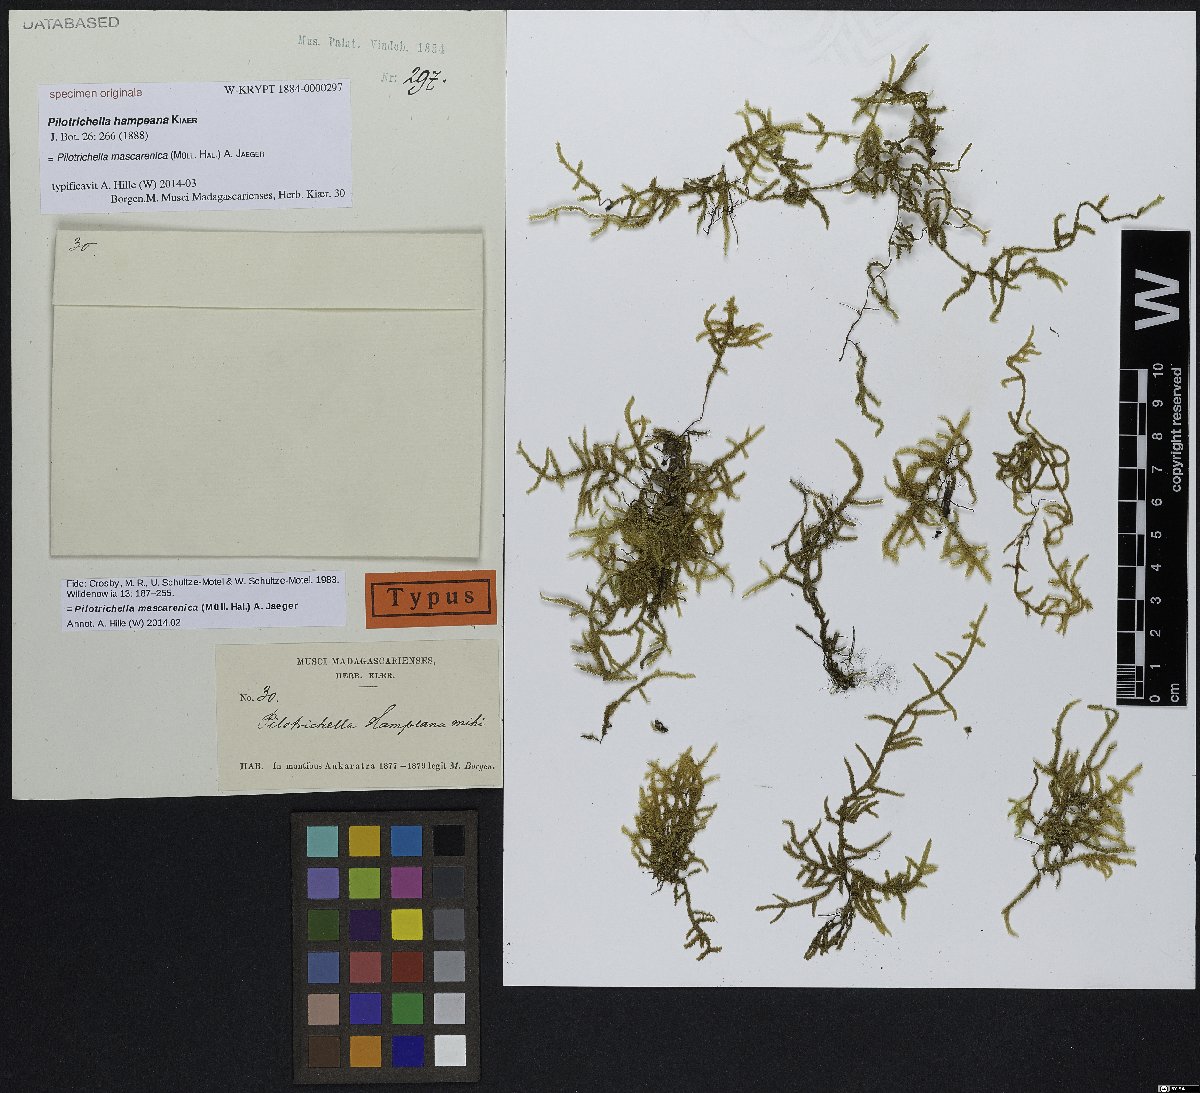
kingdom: Plantae
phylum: Bryophyta
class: Bryopsida
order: Hypnales
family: Lembophyllaceae
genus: Pilotrichella
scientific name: Pilotrichella mascarenica
